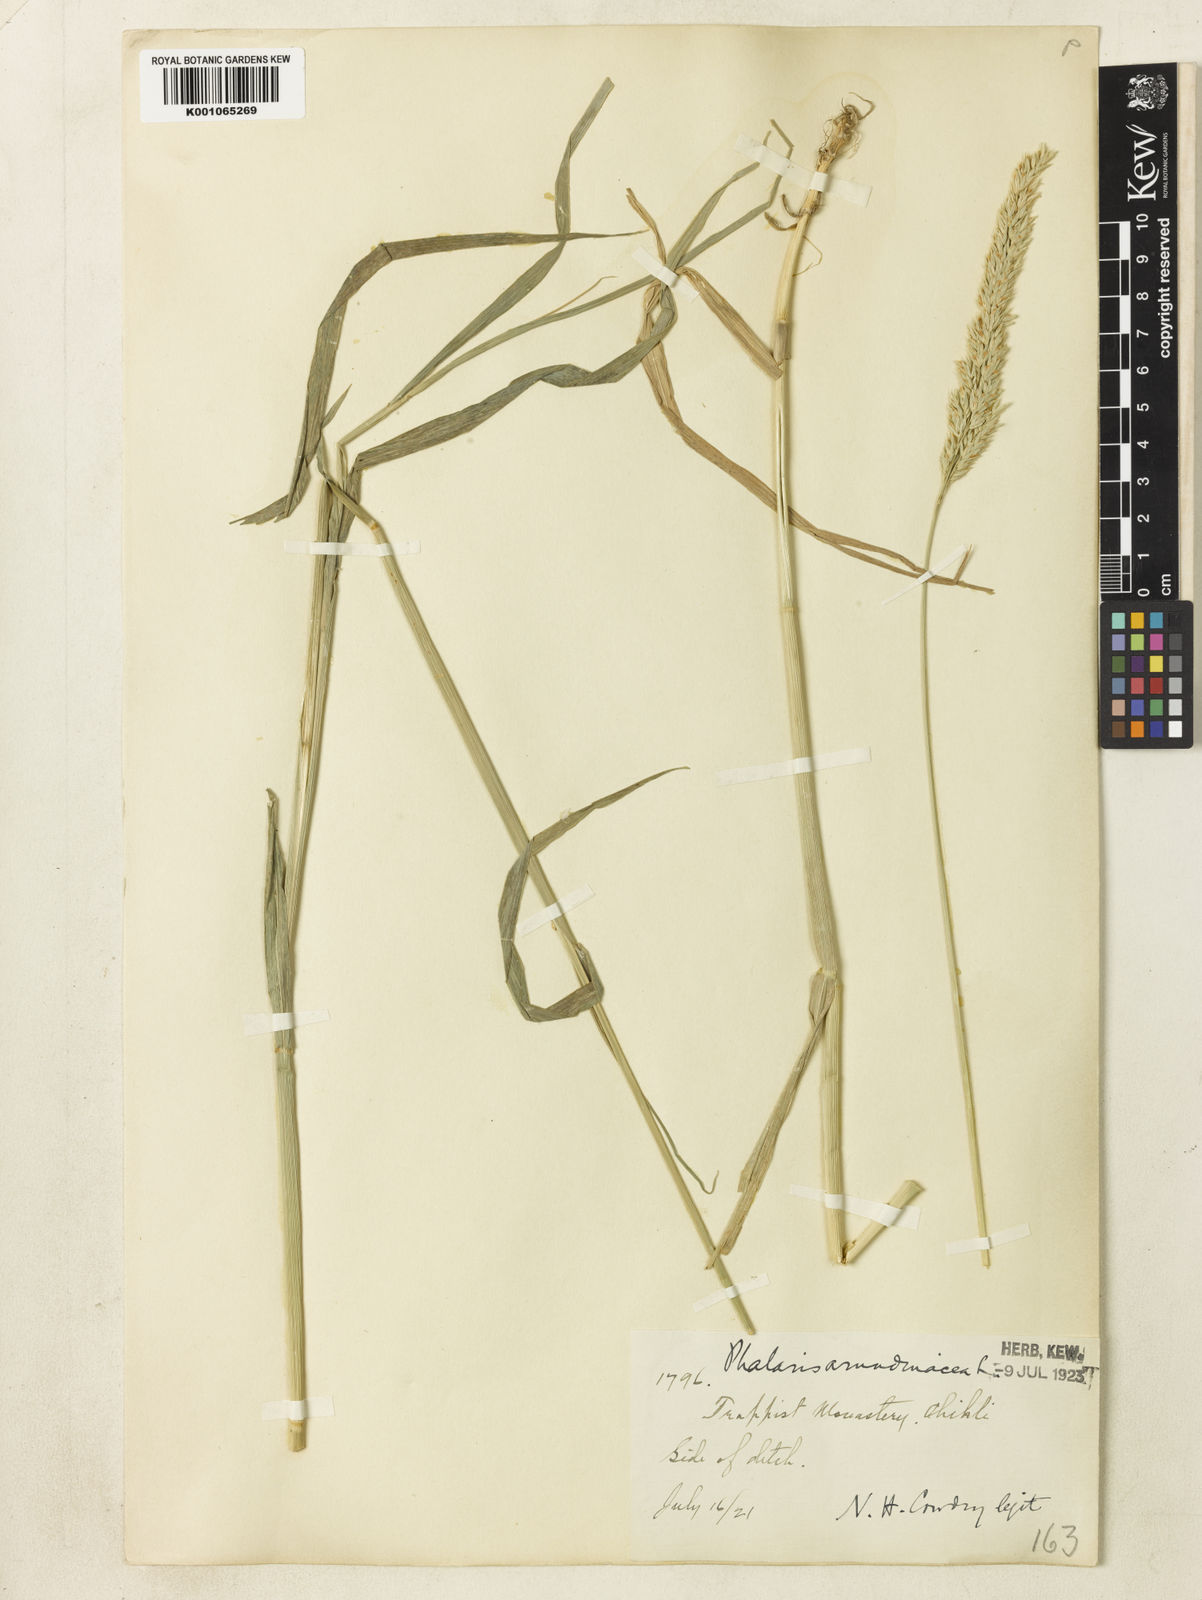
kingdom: Plantae
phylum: Tracheophyta
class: Liliopsida
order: Poales
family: Poaceae
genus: Phalaris
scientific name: Phalaris arundinacea
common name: Reed canary-grass
